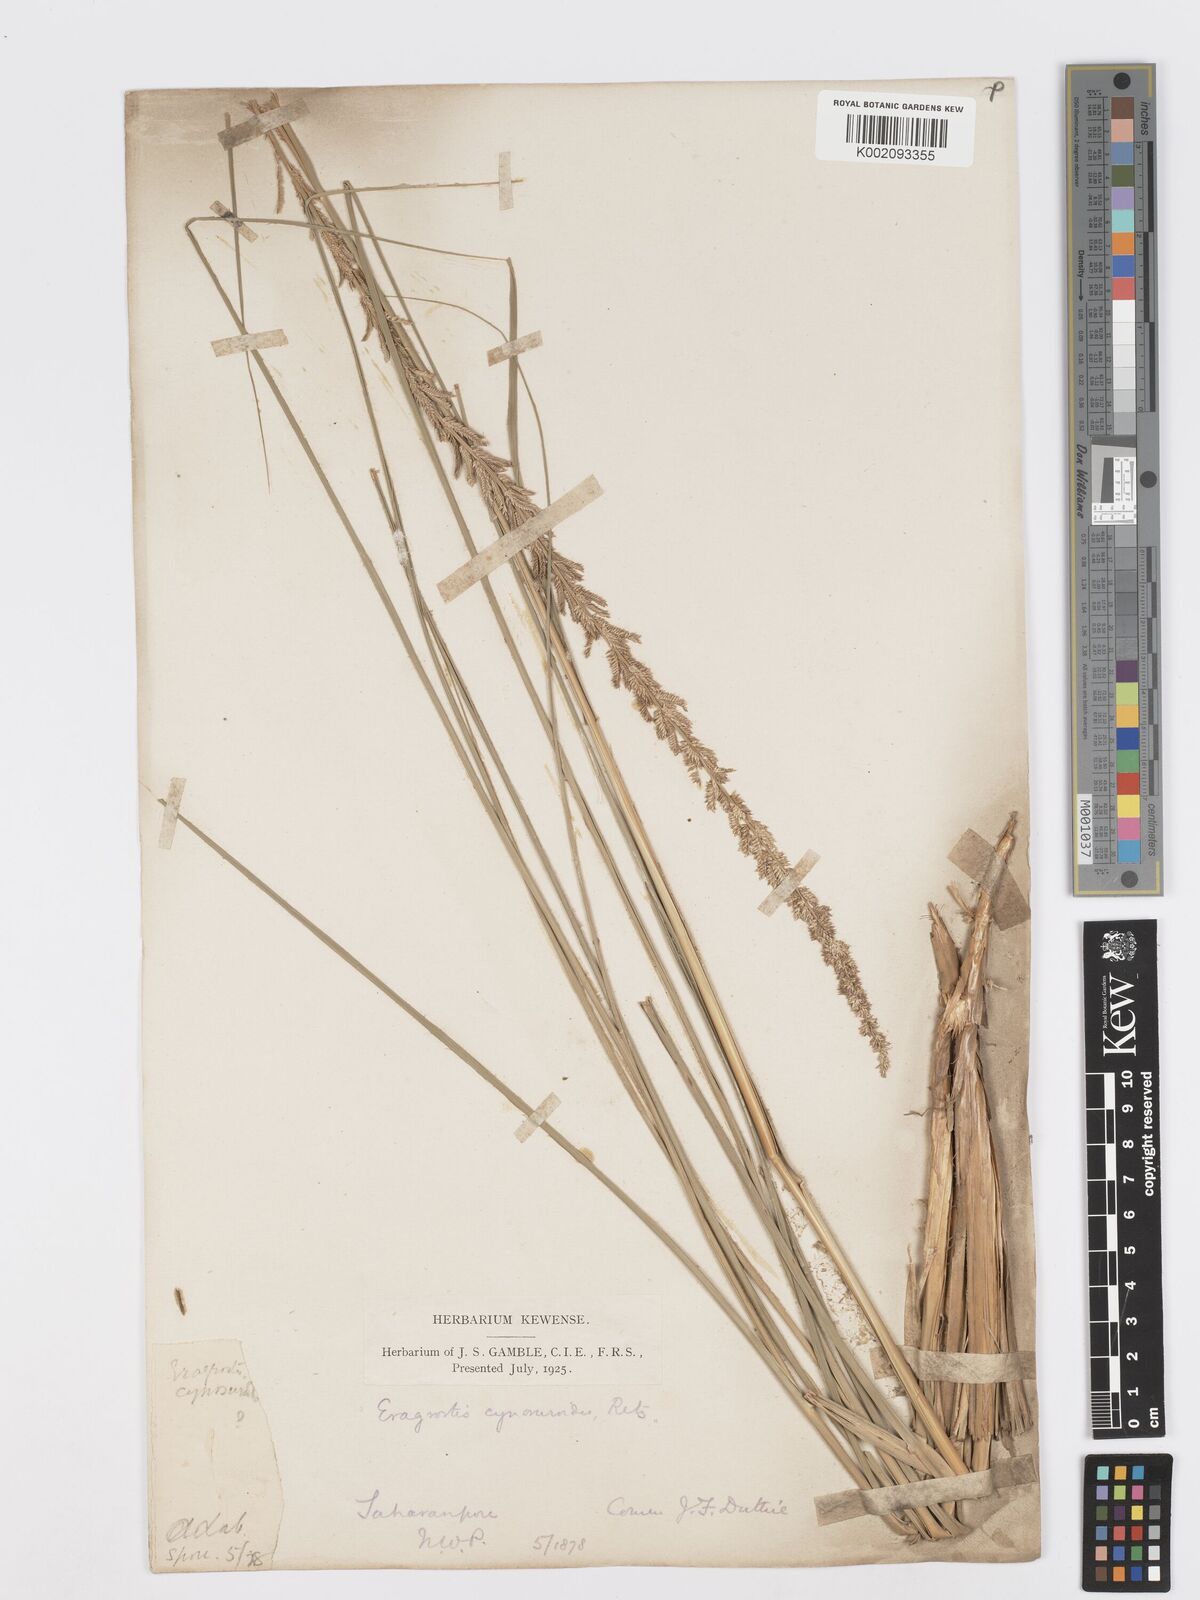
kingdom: Plantae
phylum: Tracheophyta
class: Liliopsida
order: Poales
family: Poaceae
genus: Desmostachya
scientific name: Desmostachya bipinnata
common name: Crowfoot grass
